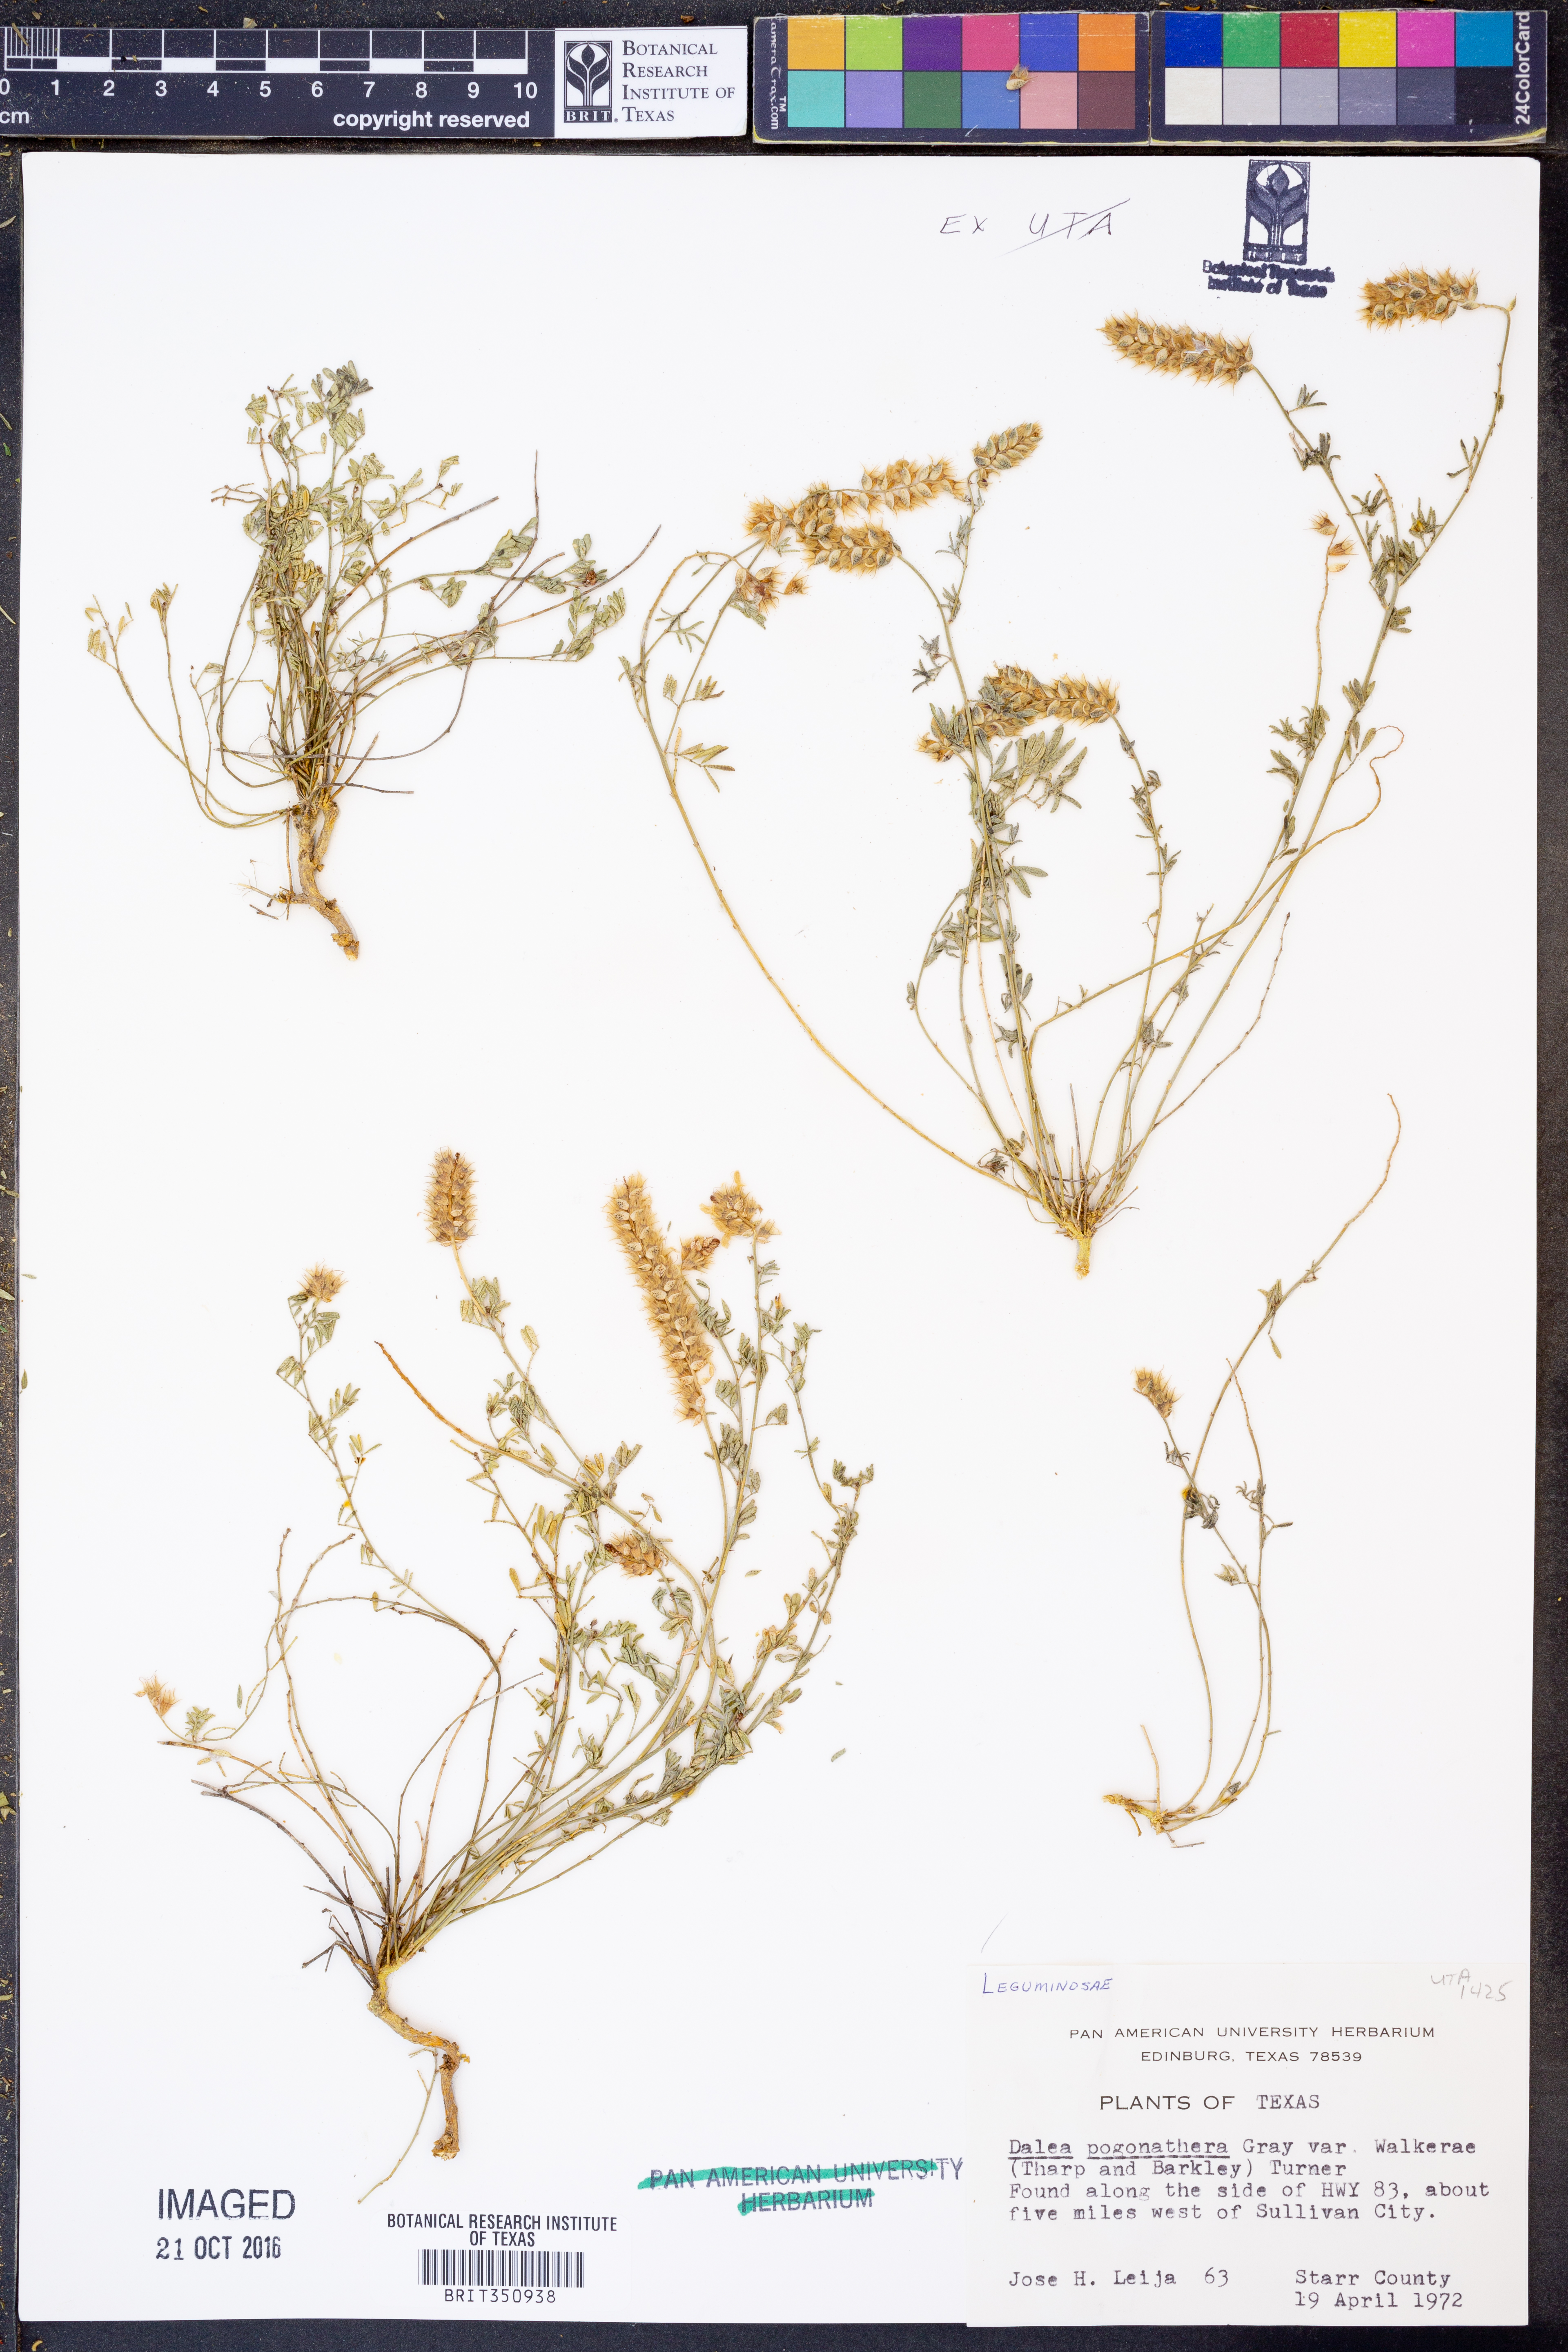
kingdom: Plantae
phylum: Tracheophyta
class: Magnoliopsida
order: Fabales
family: Fabaceae
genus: Dalea
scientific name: Dalea pogonathera
